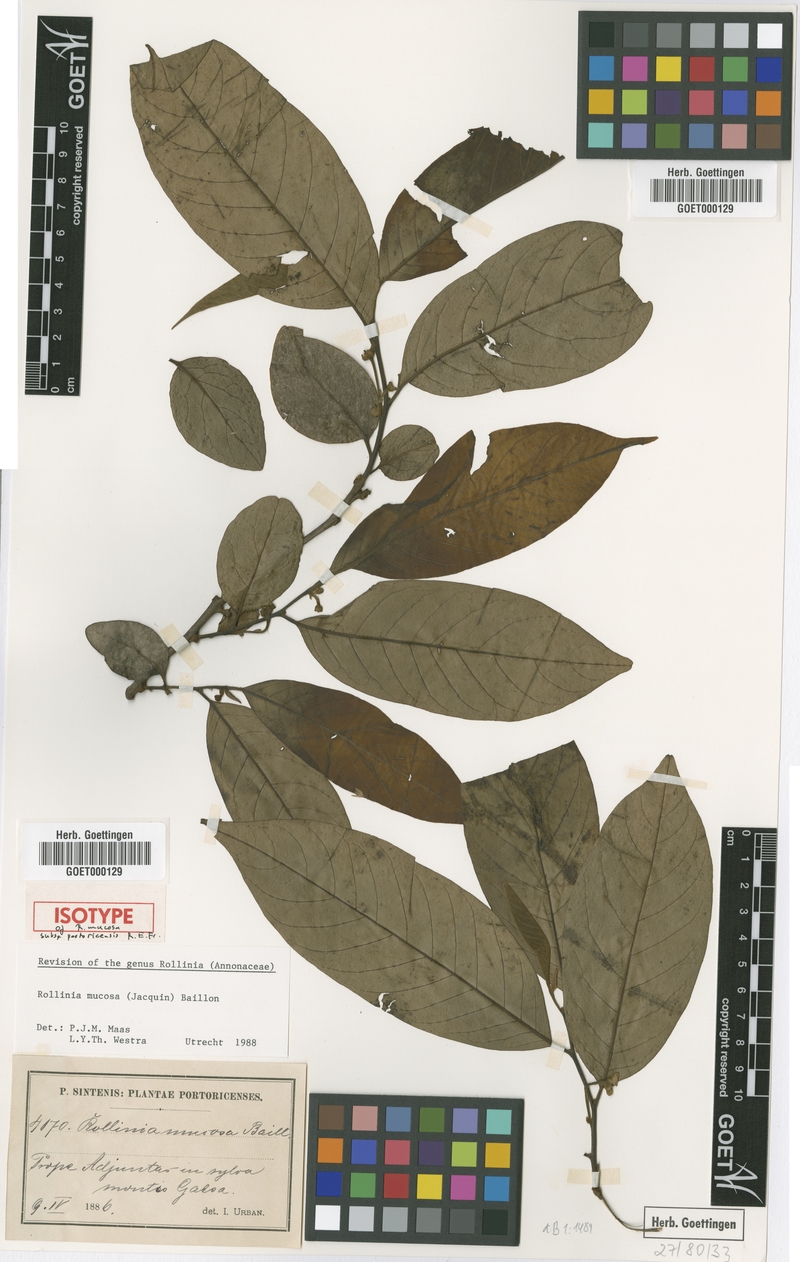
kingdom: Plantae
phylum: Tracheophyta
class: Magnoliopsida
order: Magnoliales
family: Annonaceae
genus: Annona
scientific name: Annona mucosa
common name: Sugar apple
